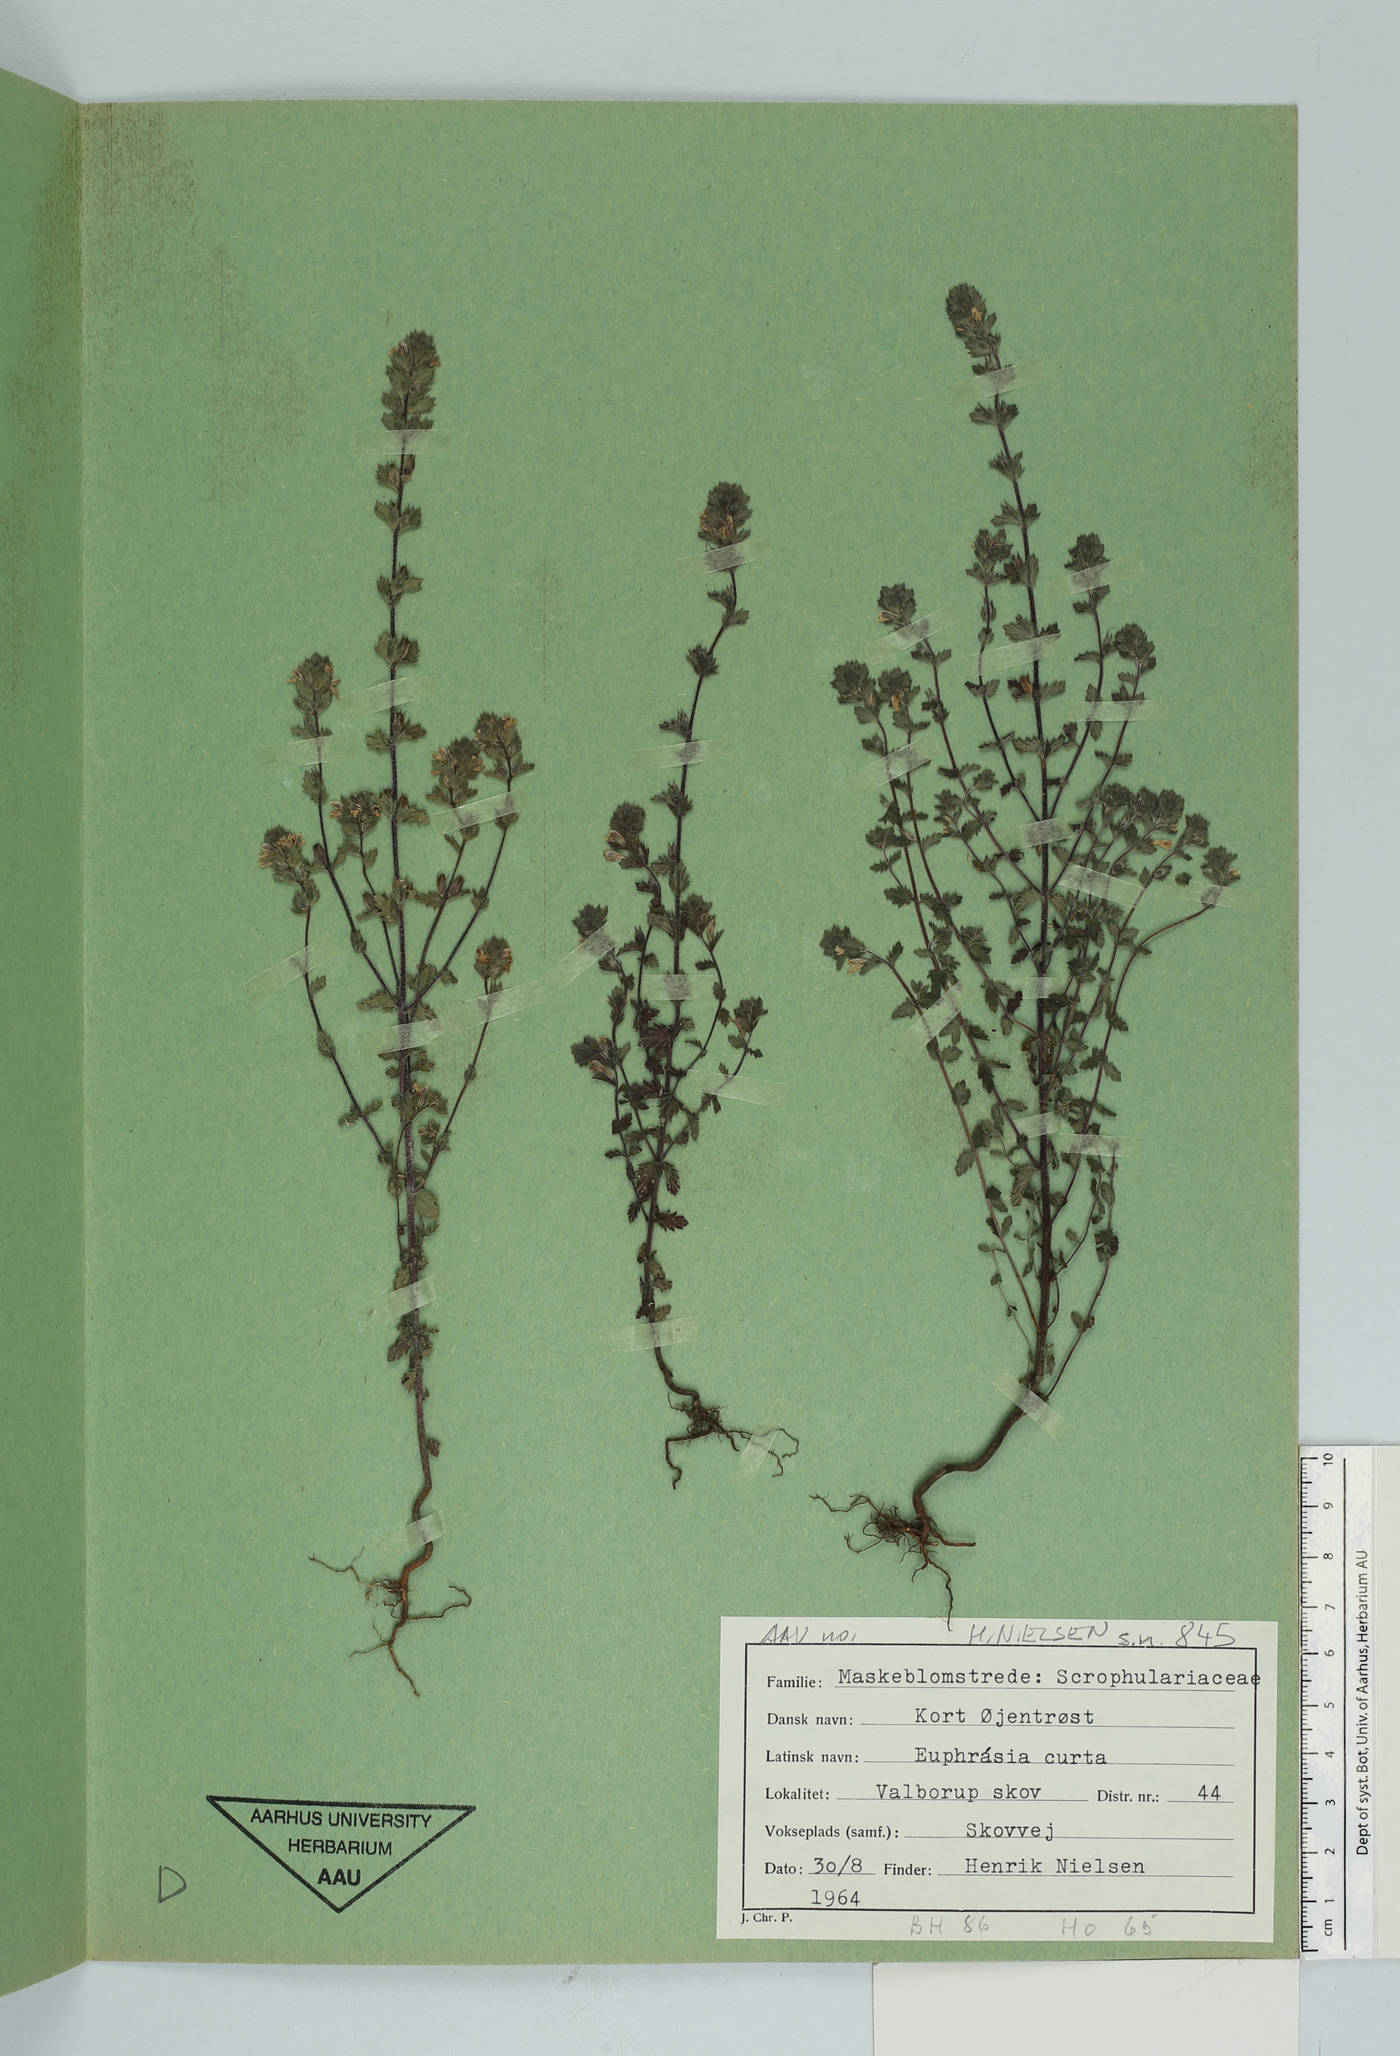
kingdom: Plantae
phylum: Tracheophyta
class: Magnoliopsida
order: Lamiales
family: Orobanchaceae
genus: Euphrasia
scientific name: Euphrasia nemorosa
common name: Common eyebright
